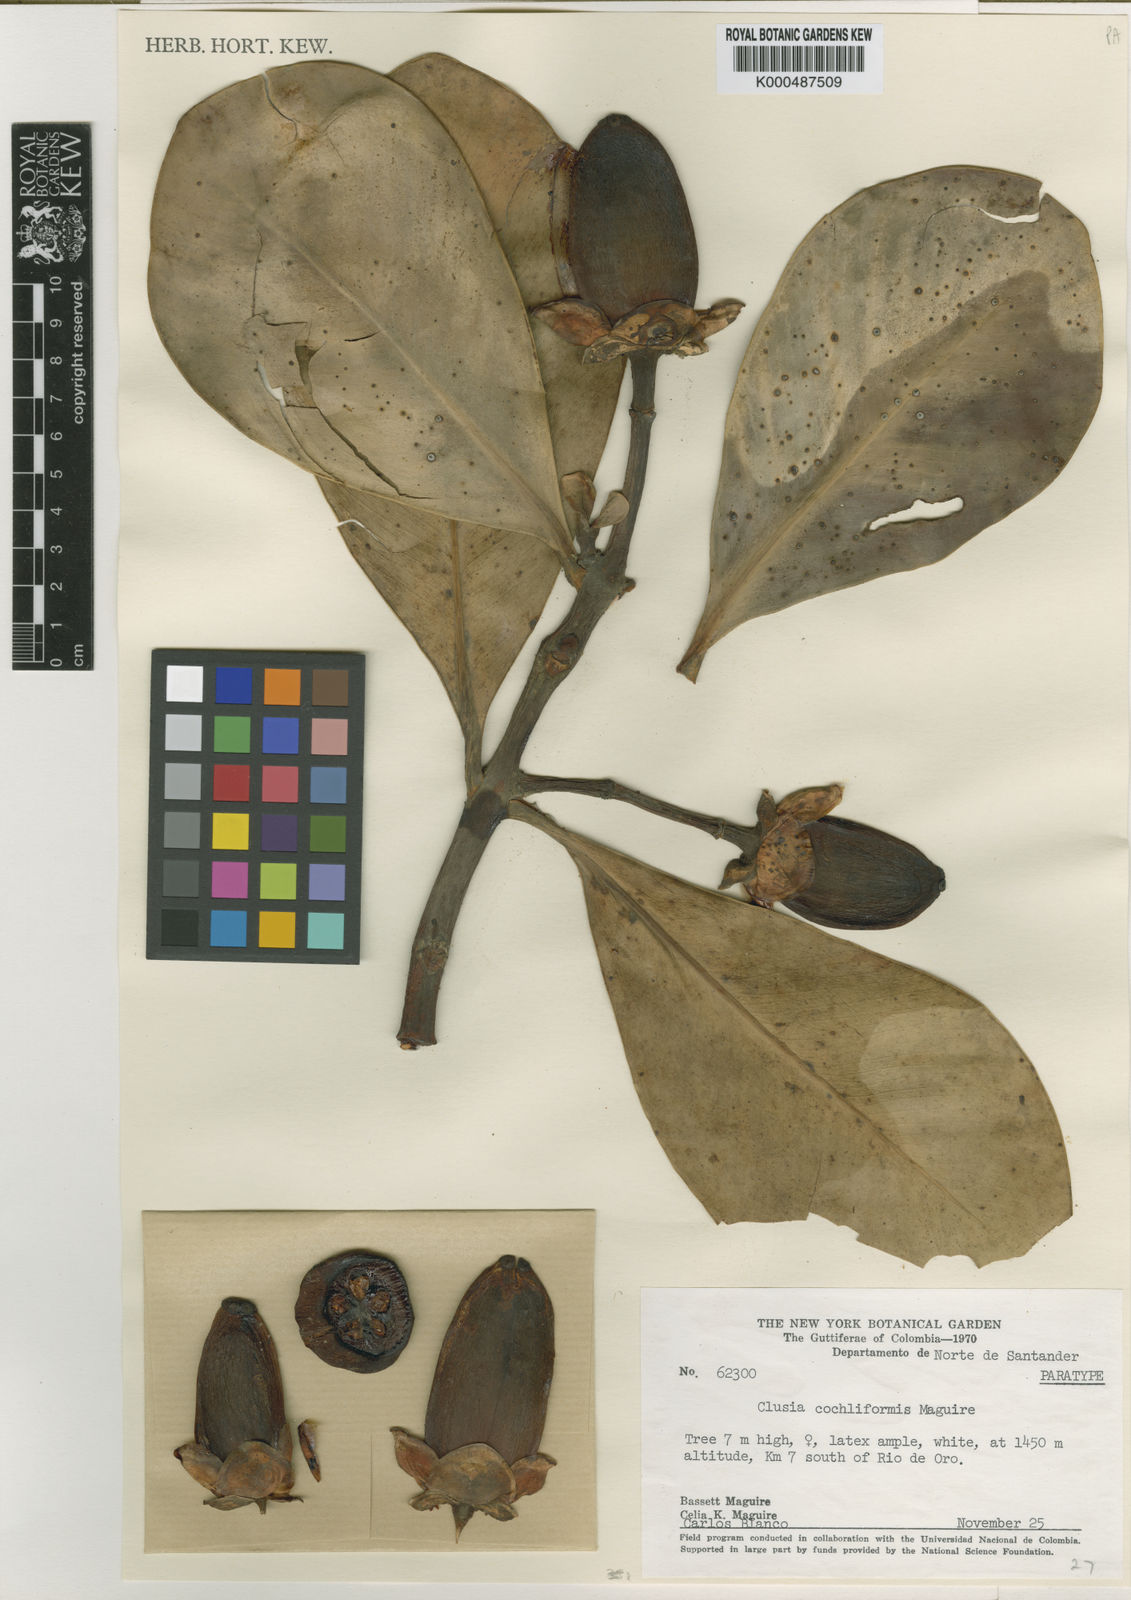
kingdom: Plantae
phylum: Tracheophyta
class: Magnoliopsida
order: Malpighiales
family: Clusiaceae
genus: Clusia
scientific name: Clusia cochliformis
